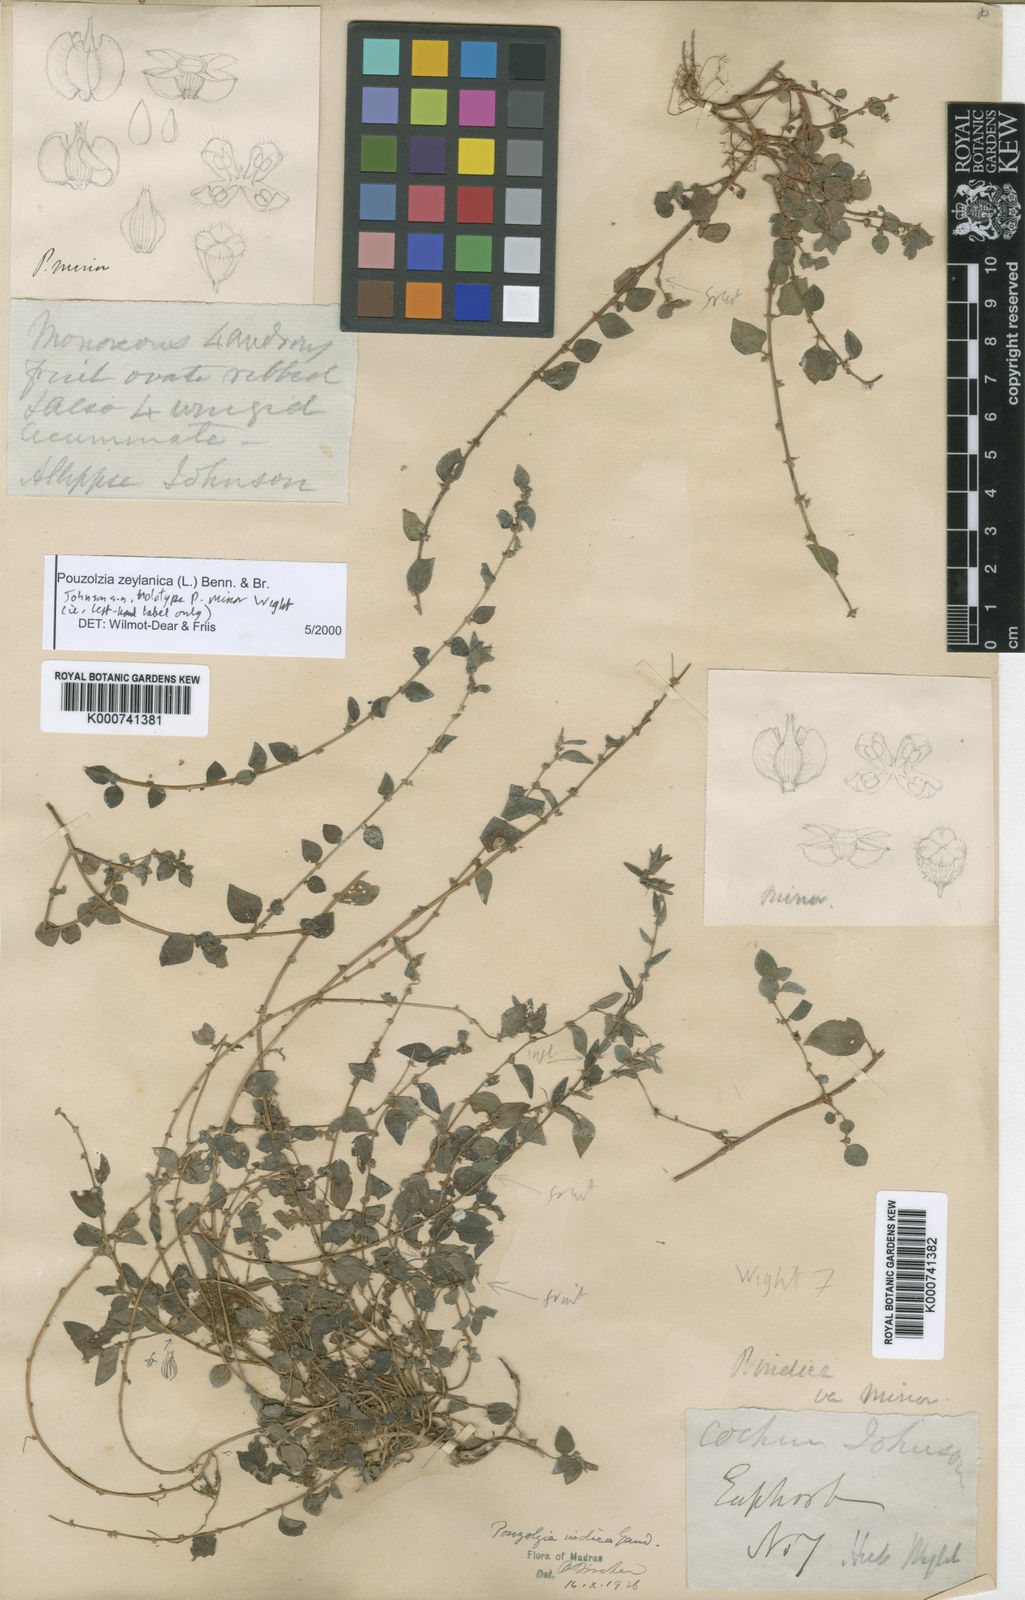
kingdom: Plantae
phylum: Tracheophyta
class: Magnoliopsida
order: Rosales
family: Urticaceae
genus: Pouzolzia
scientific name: Pouzolzia zeylanica
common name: Graceful pouzolzsbush
